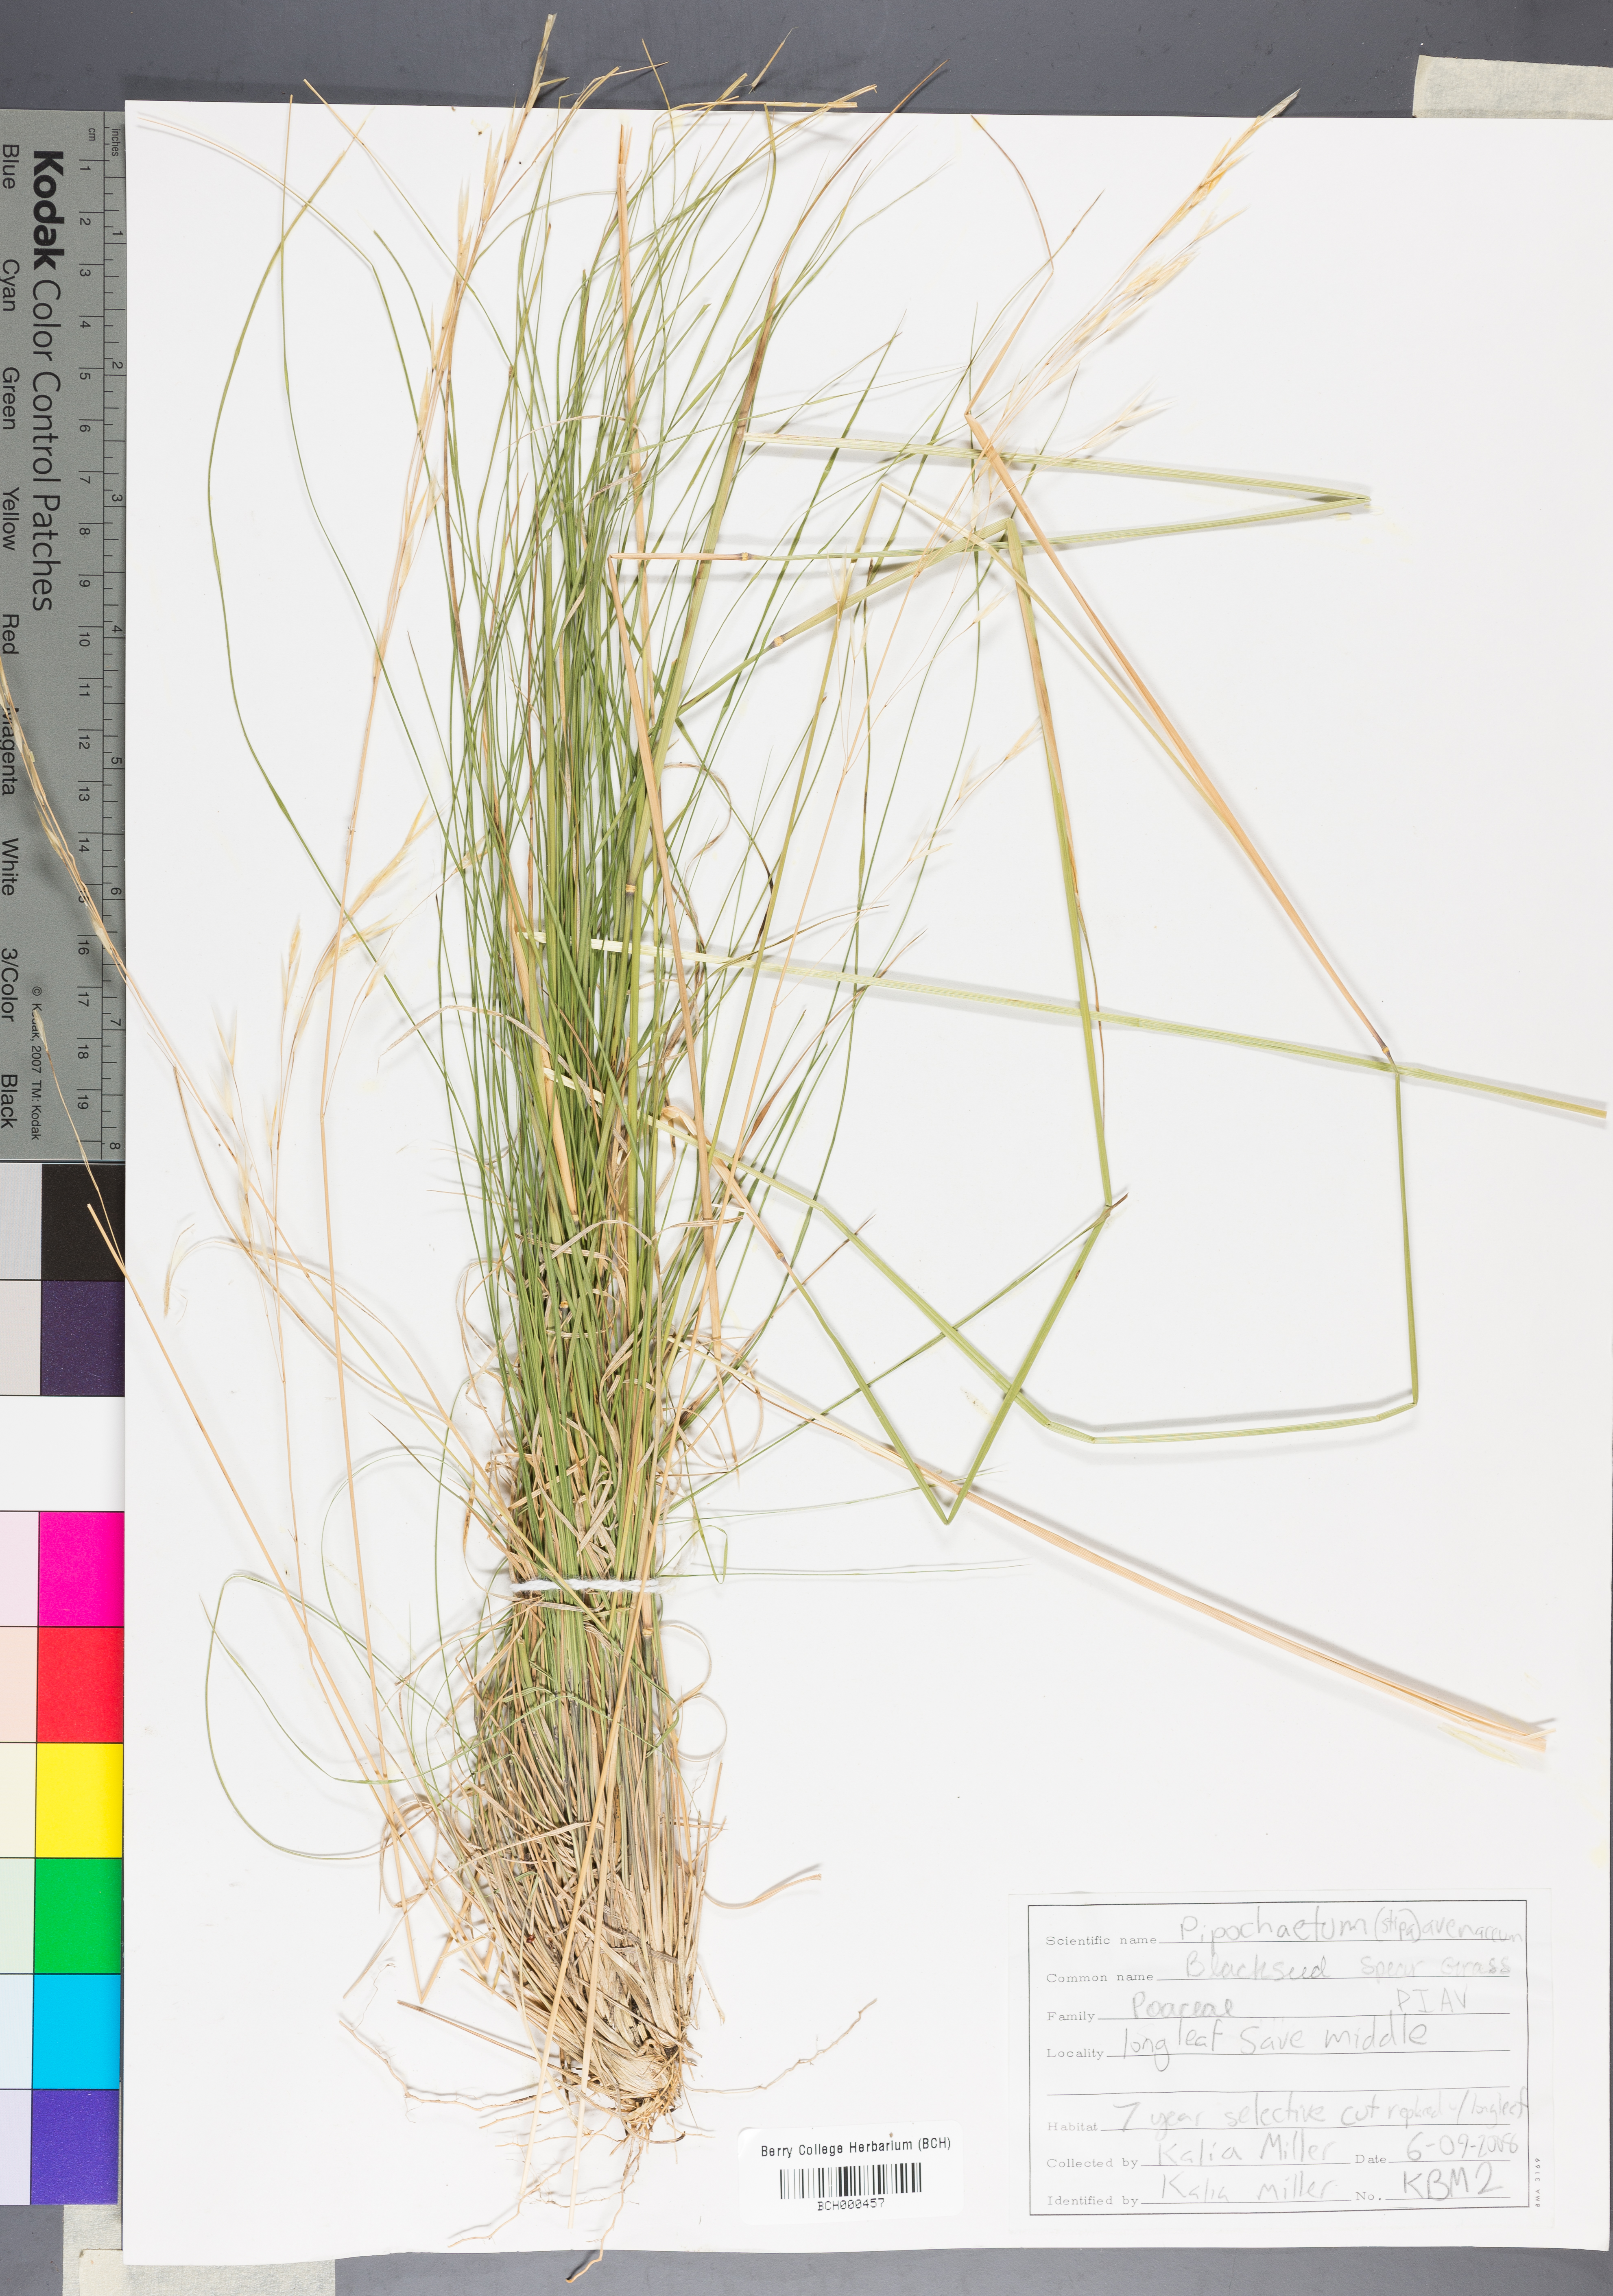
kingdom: Plantae
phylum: Tracheophyta
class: Liliopsida
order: Poales
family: Poaceae
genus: Piptochaetium
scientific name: Piptochaetium avenaceum
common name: Black bunchgrass
